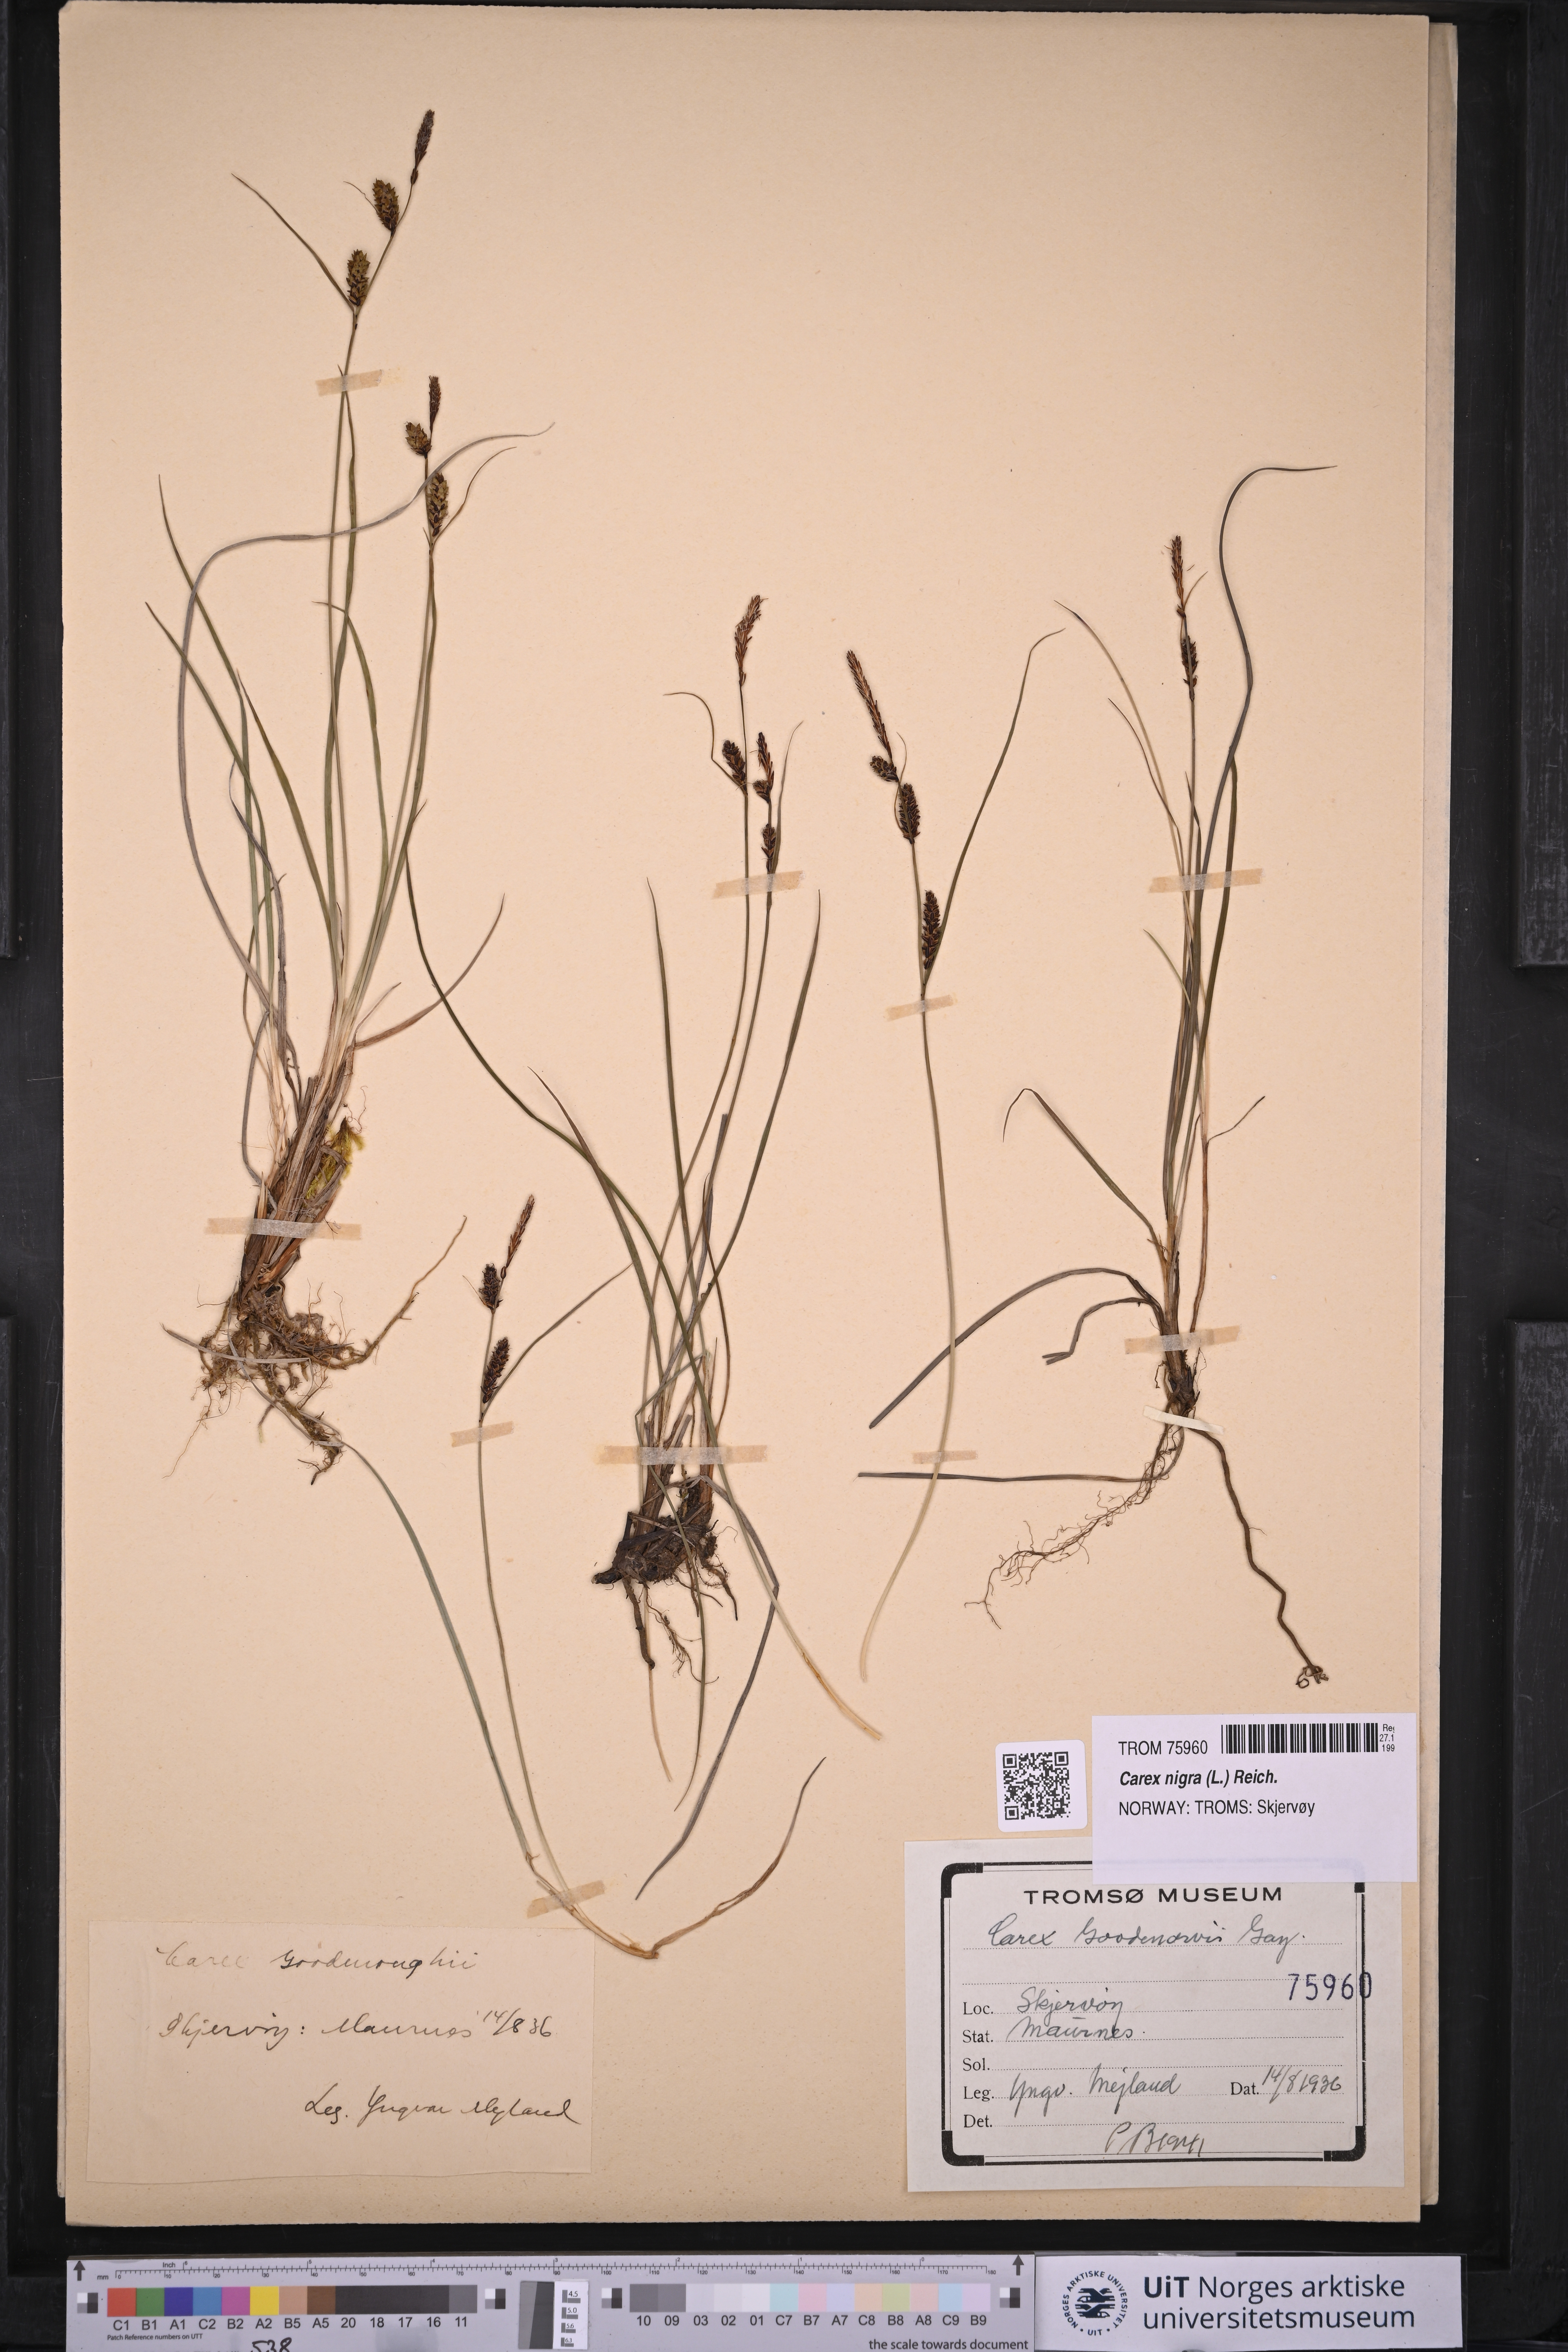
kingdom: Plantae
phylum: Tracheophyta
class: Liliopsida
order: Poales
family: Cyperaceae
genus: Carex
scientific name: Carex nigra
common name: Common sedge
